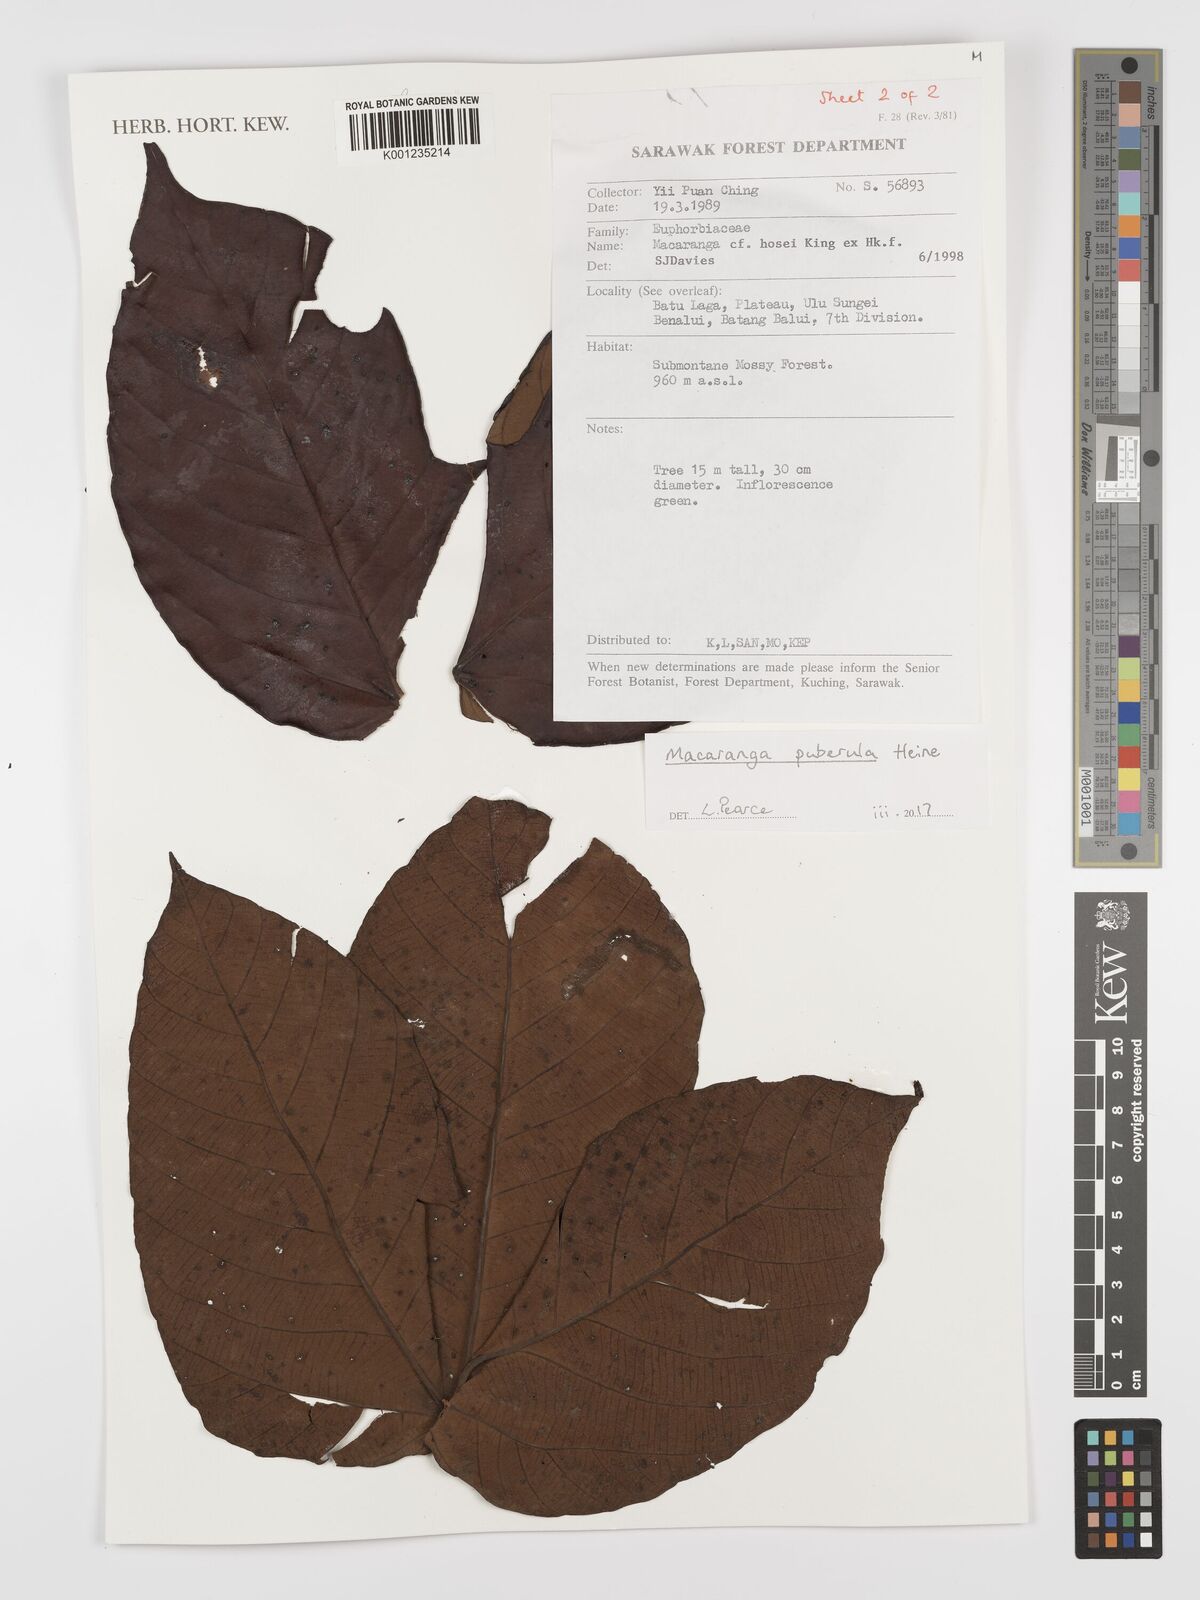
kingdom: Plantae
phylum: Tracheophyta
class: Magnoliopsida
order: Malpighiales
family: Euphorbiaceae
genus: Macaranga
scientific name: Macaranga puberula
